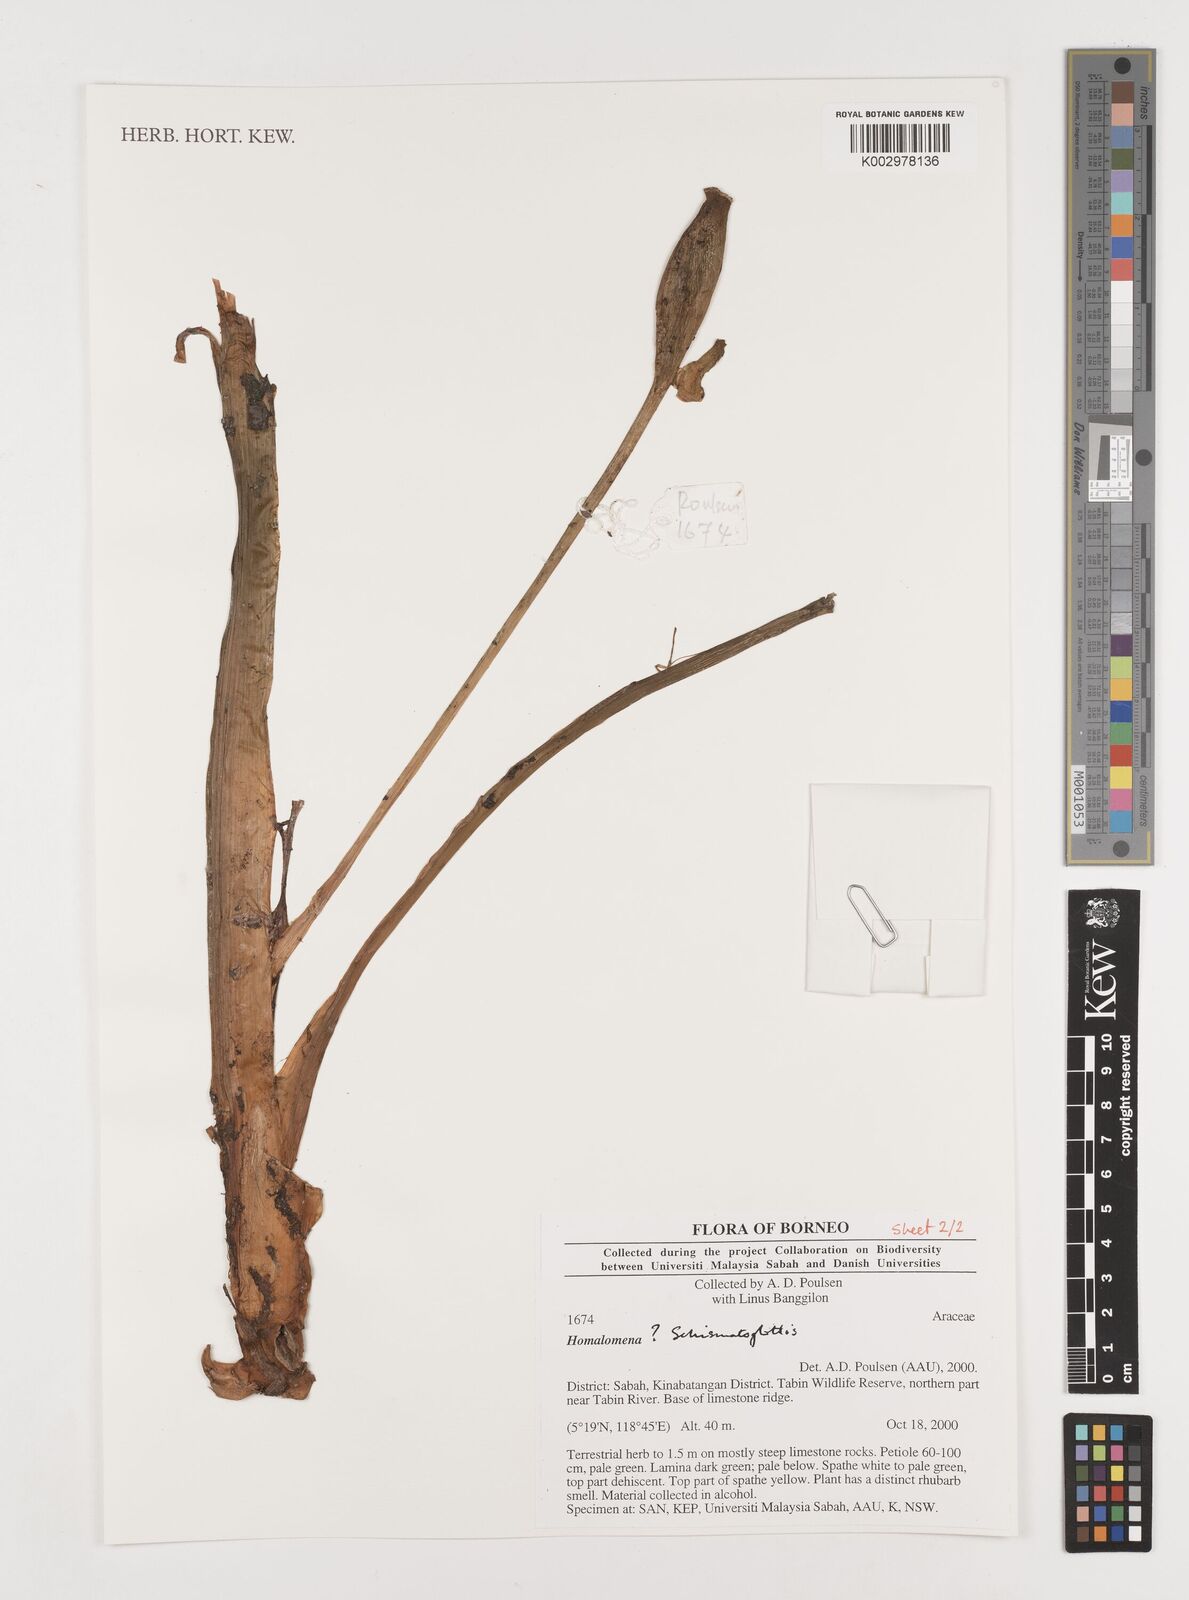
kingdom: Plantae
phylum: Tracheophyta
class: Liliopsida
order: Alismatales
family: Araceae
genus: Schismatoglottis
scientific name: Schismatoglottis
